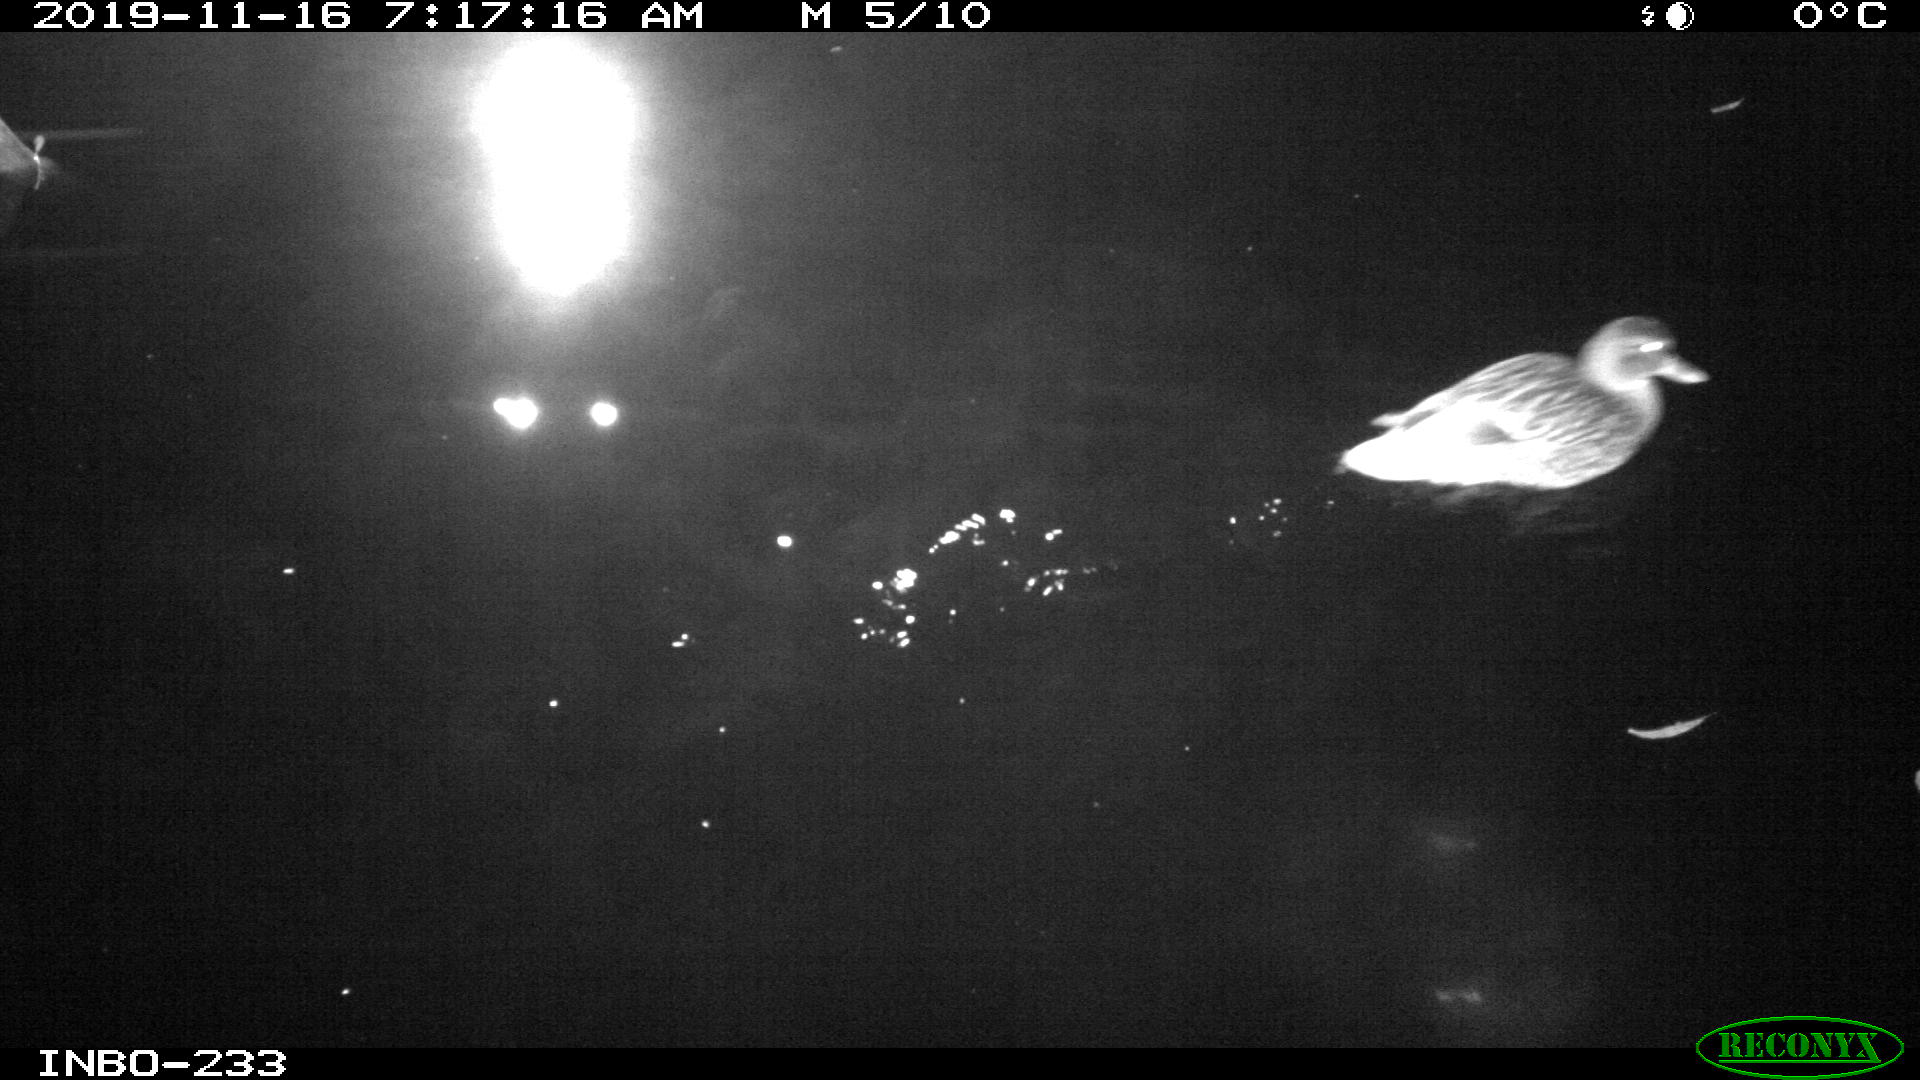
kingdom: Animalia
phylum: Chordata
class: Aves
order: Anseriformes
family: Anatidae
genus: Anas
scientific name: Anas platyrhynchos
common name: Mallard
